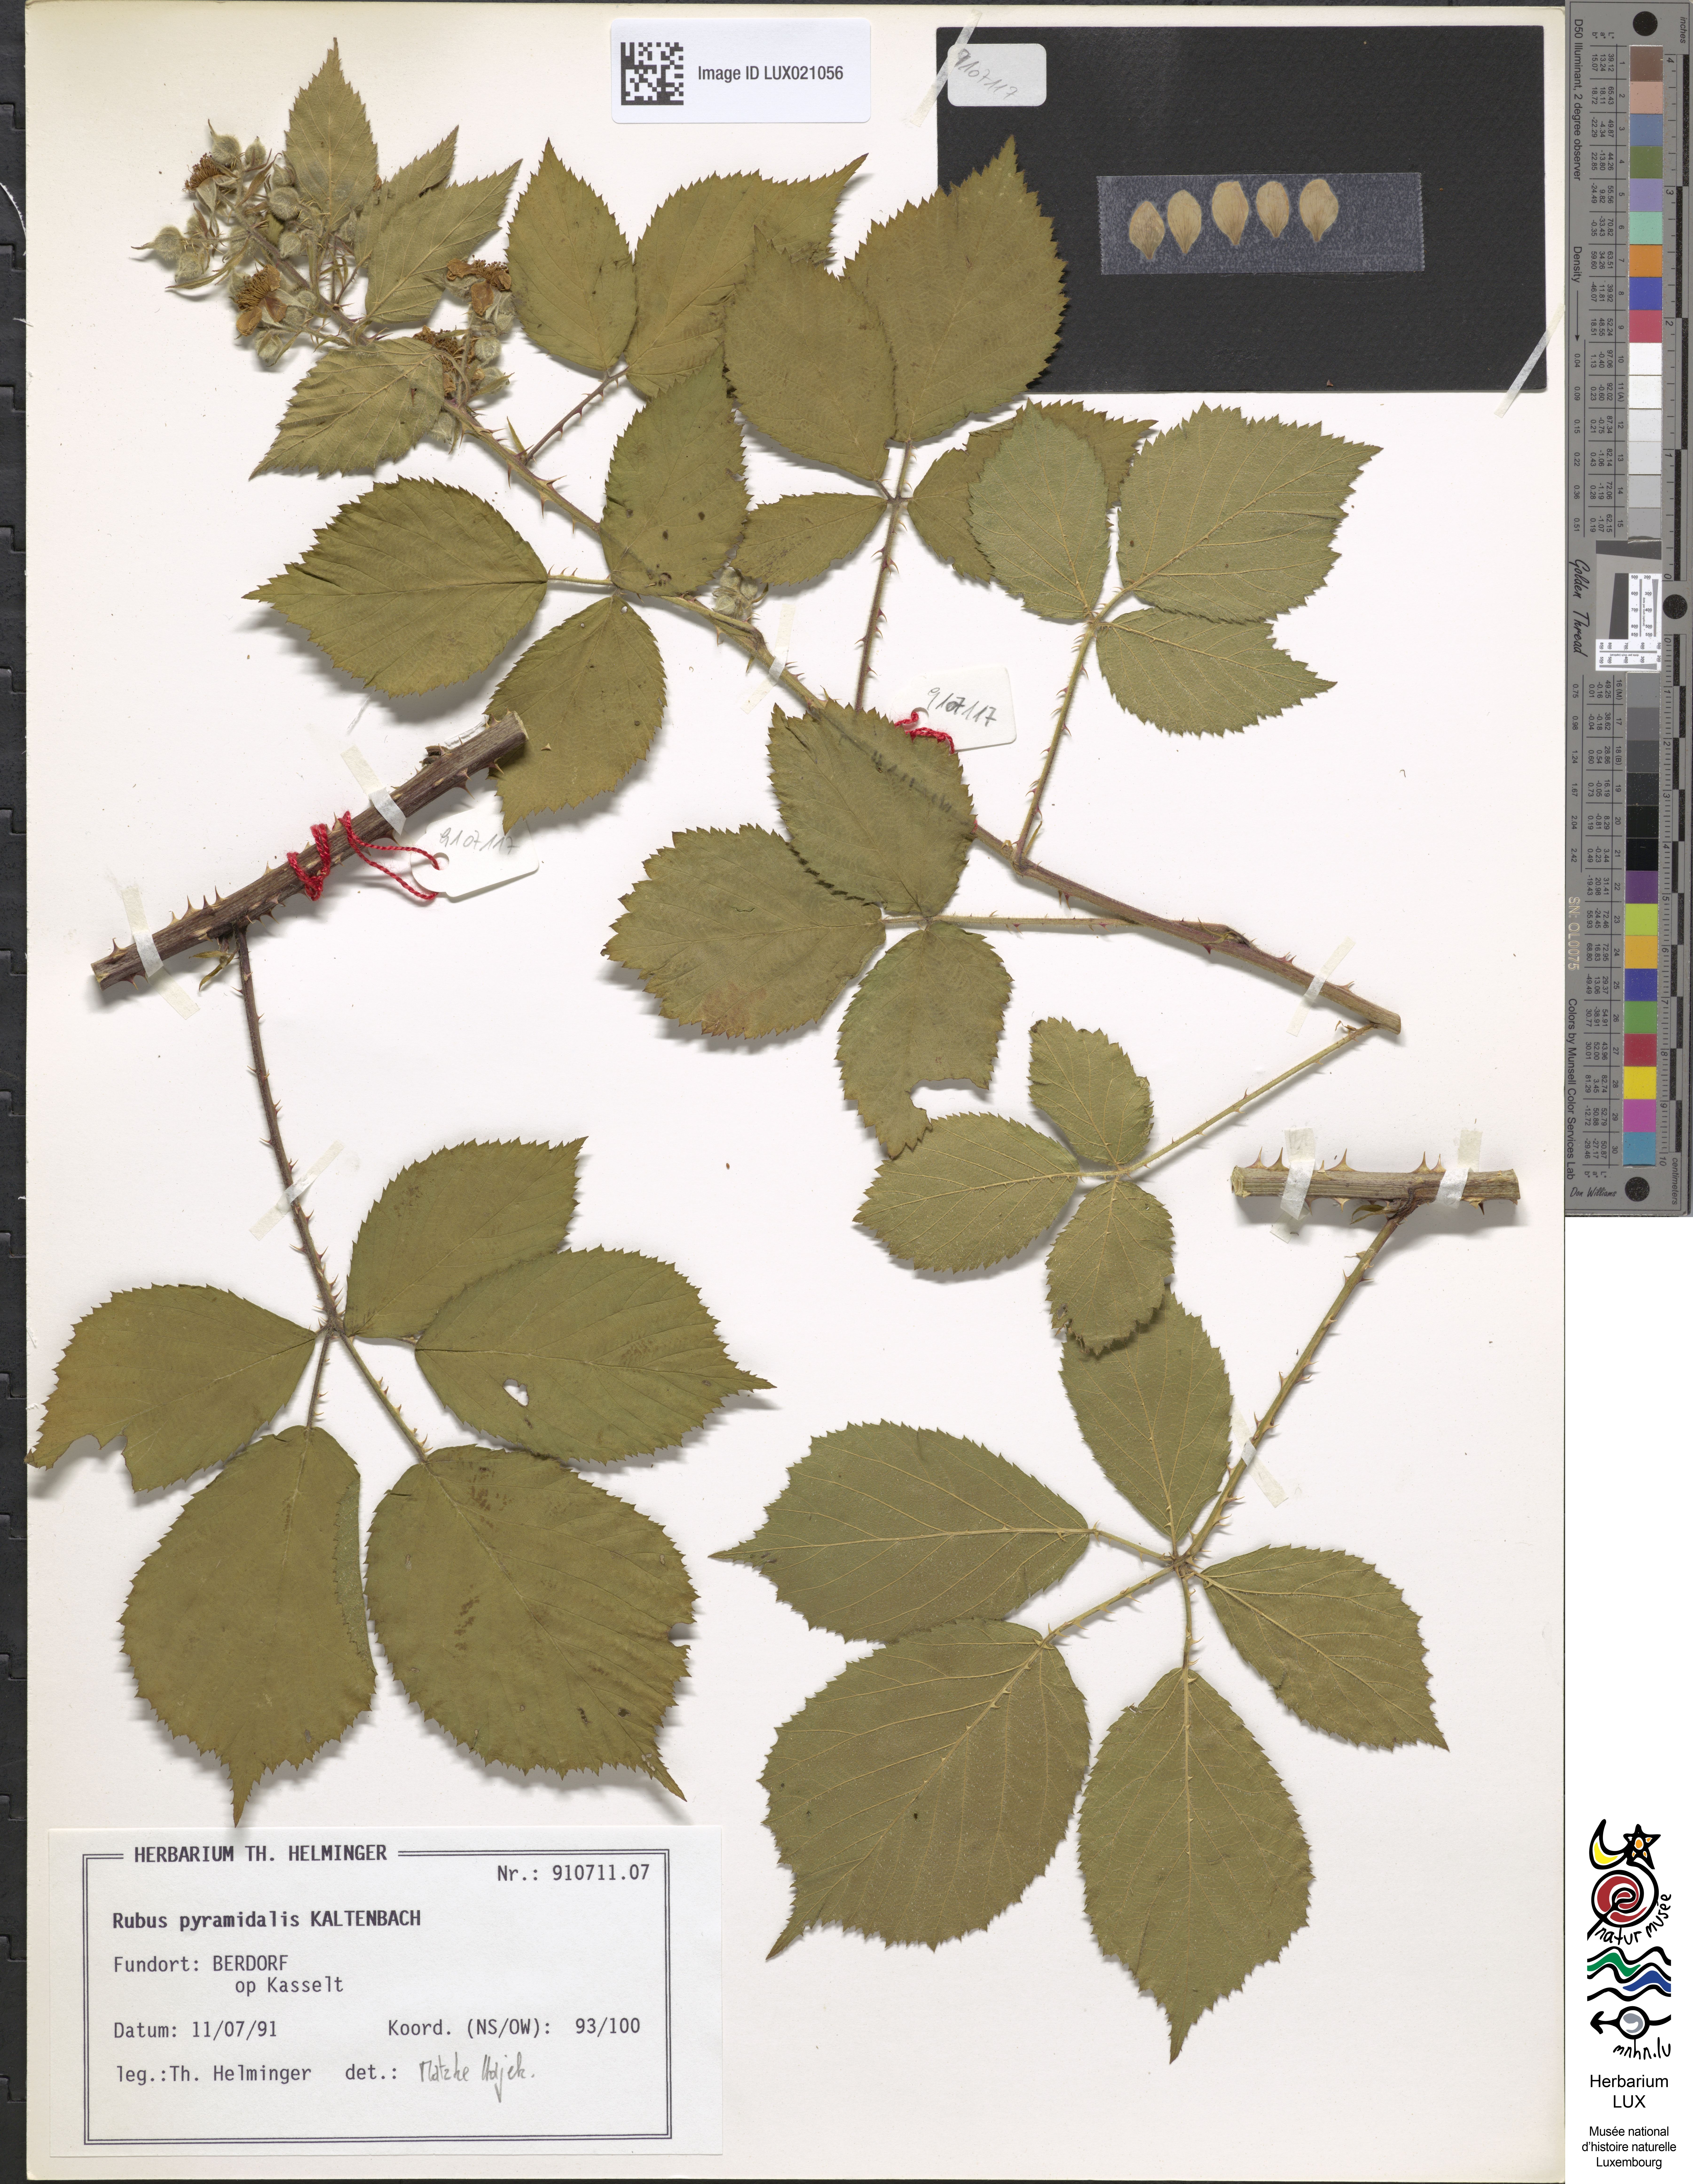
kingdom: Plantae
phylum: Tracheophyta
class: Magnoliopsida
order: Rosales
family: Rosaceae
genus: Rubus
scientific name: Rubus umbrosus
